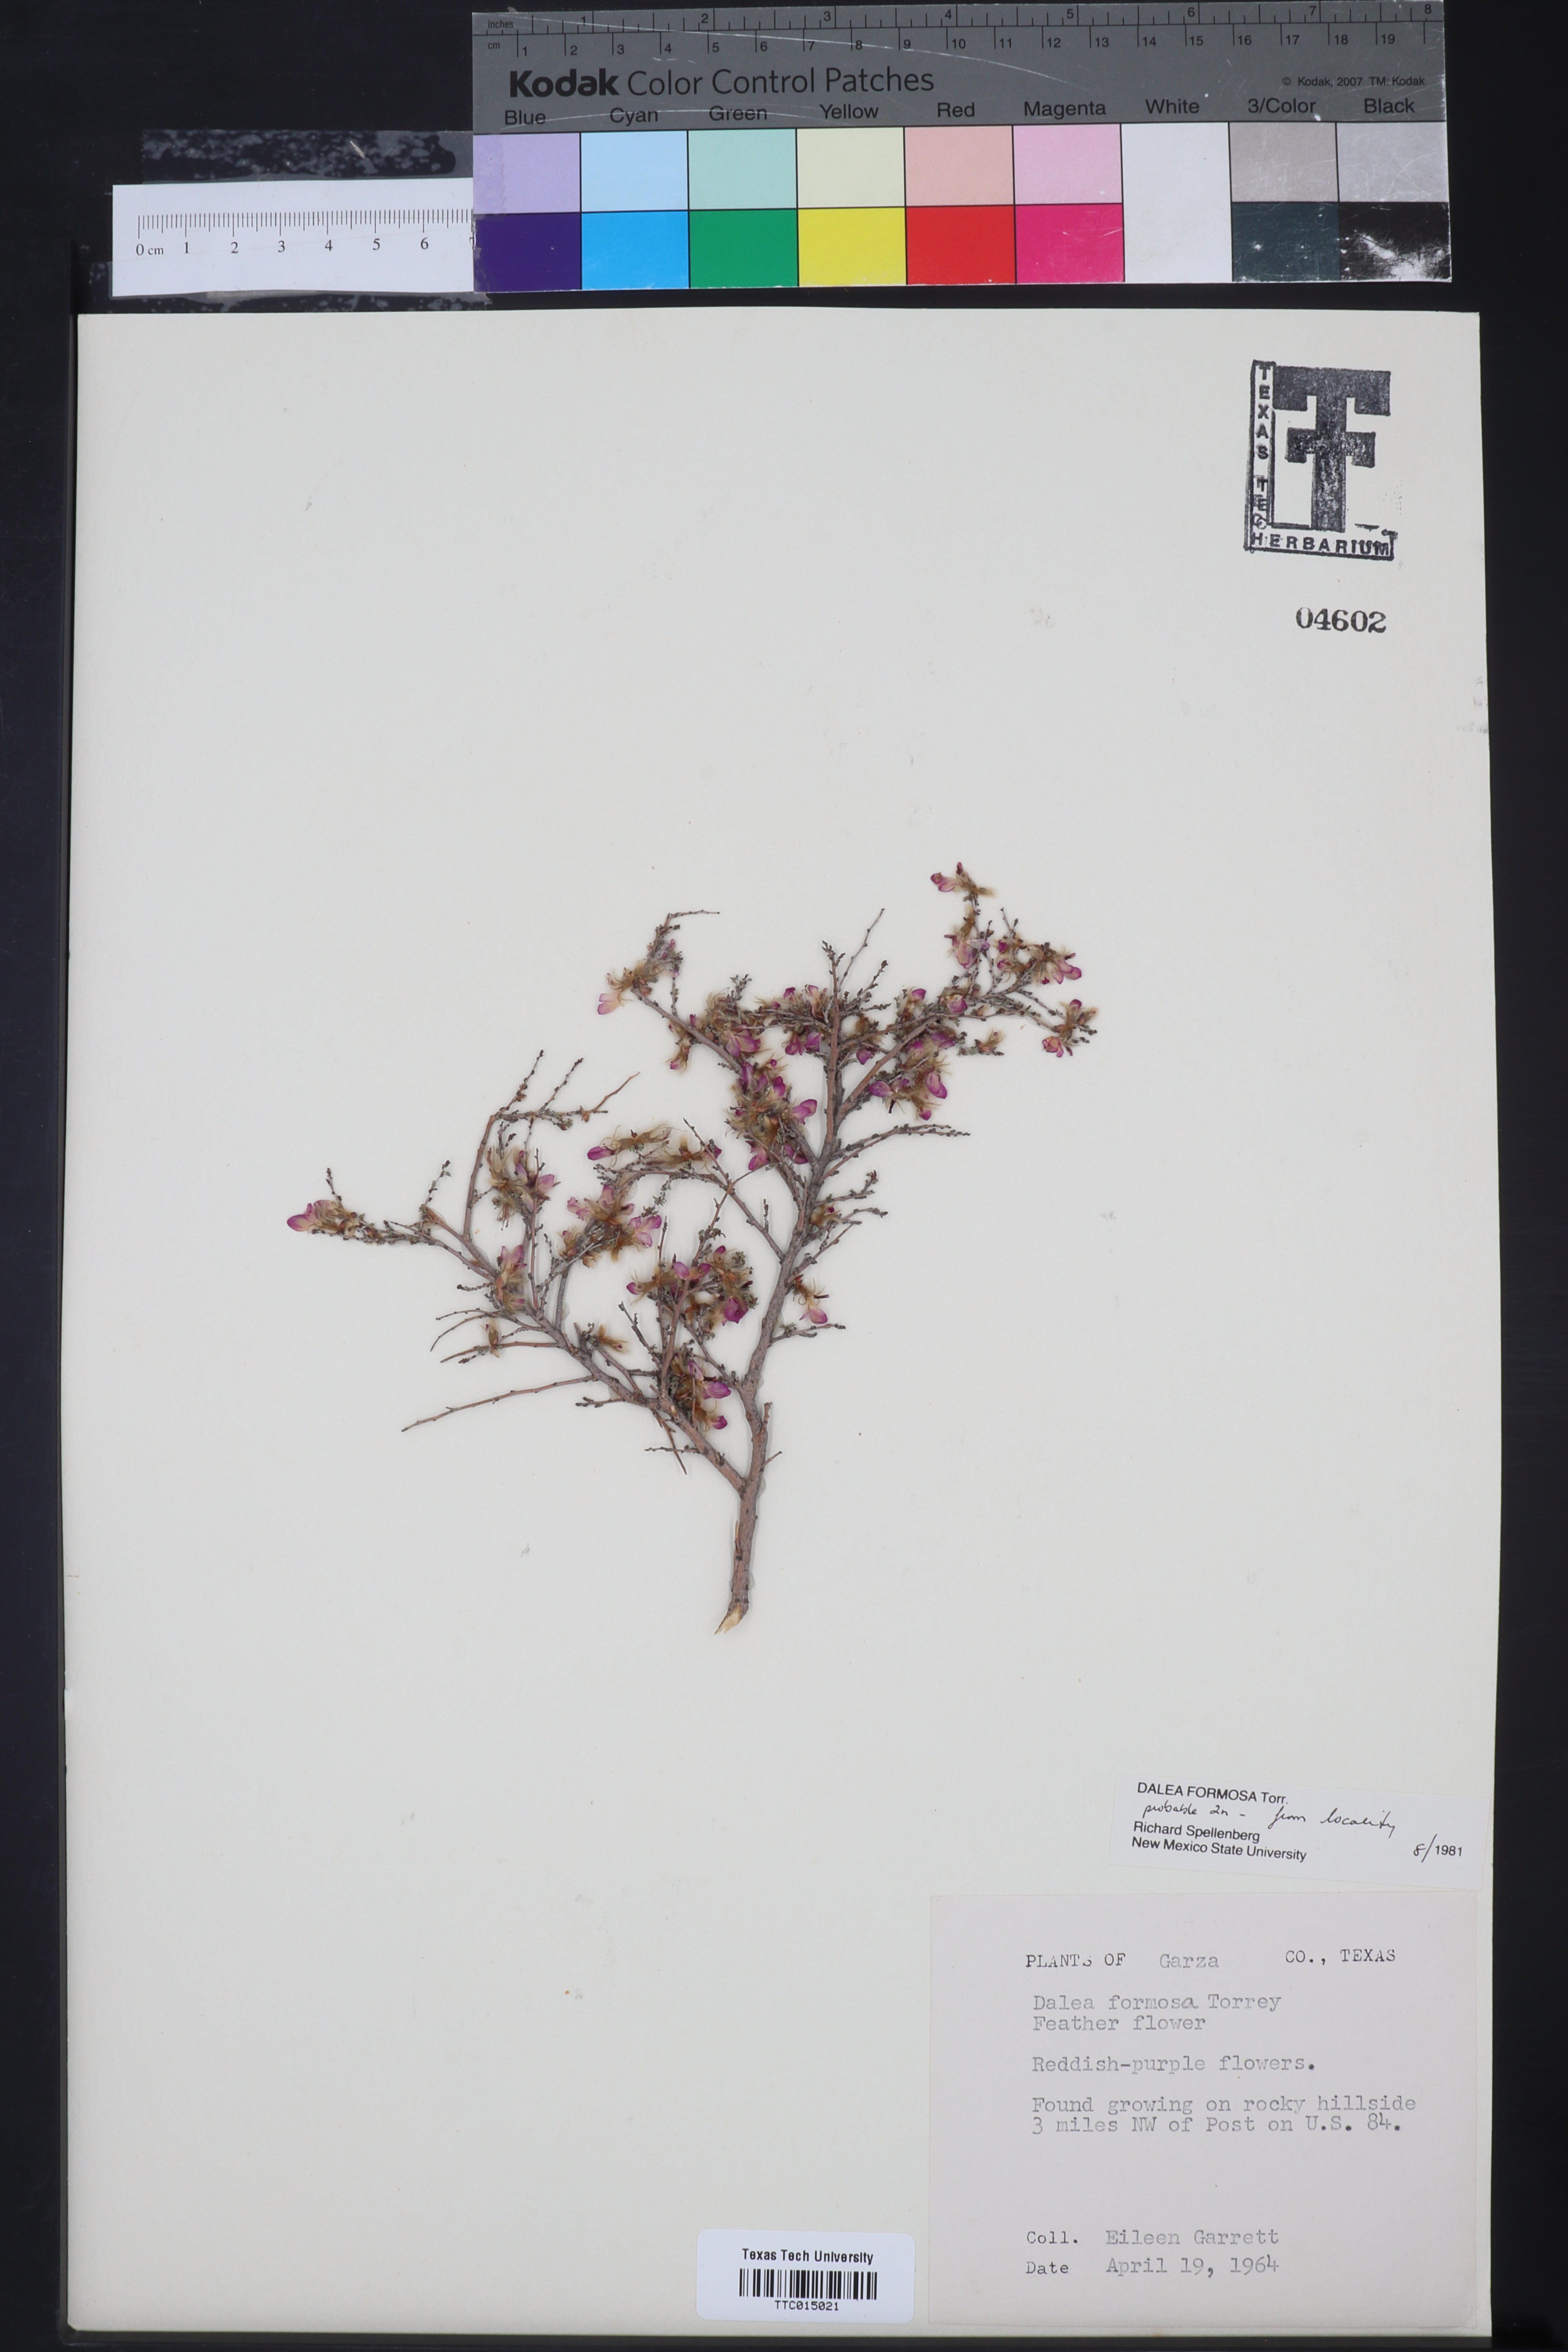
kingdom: Plantae
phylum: Tracheophyta
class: Magnoliopsida
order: Fabales
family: Fabaceae
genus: Dalea
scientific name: Dalea formosa
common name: Feather-plume dalea
